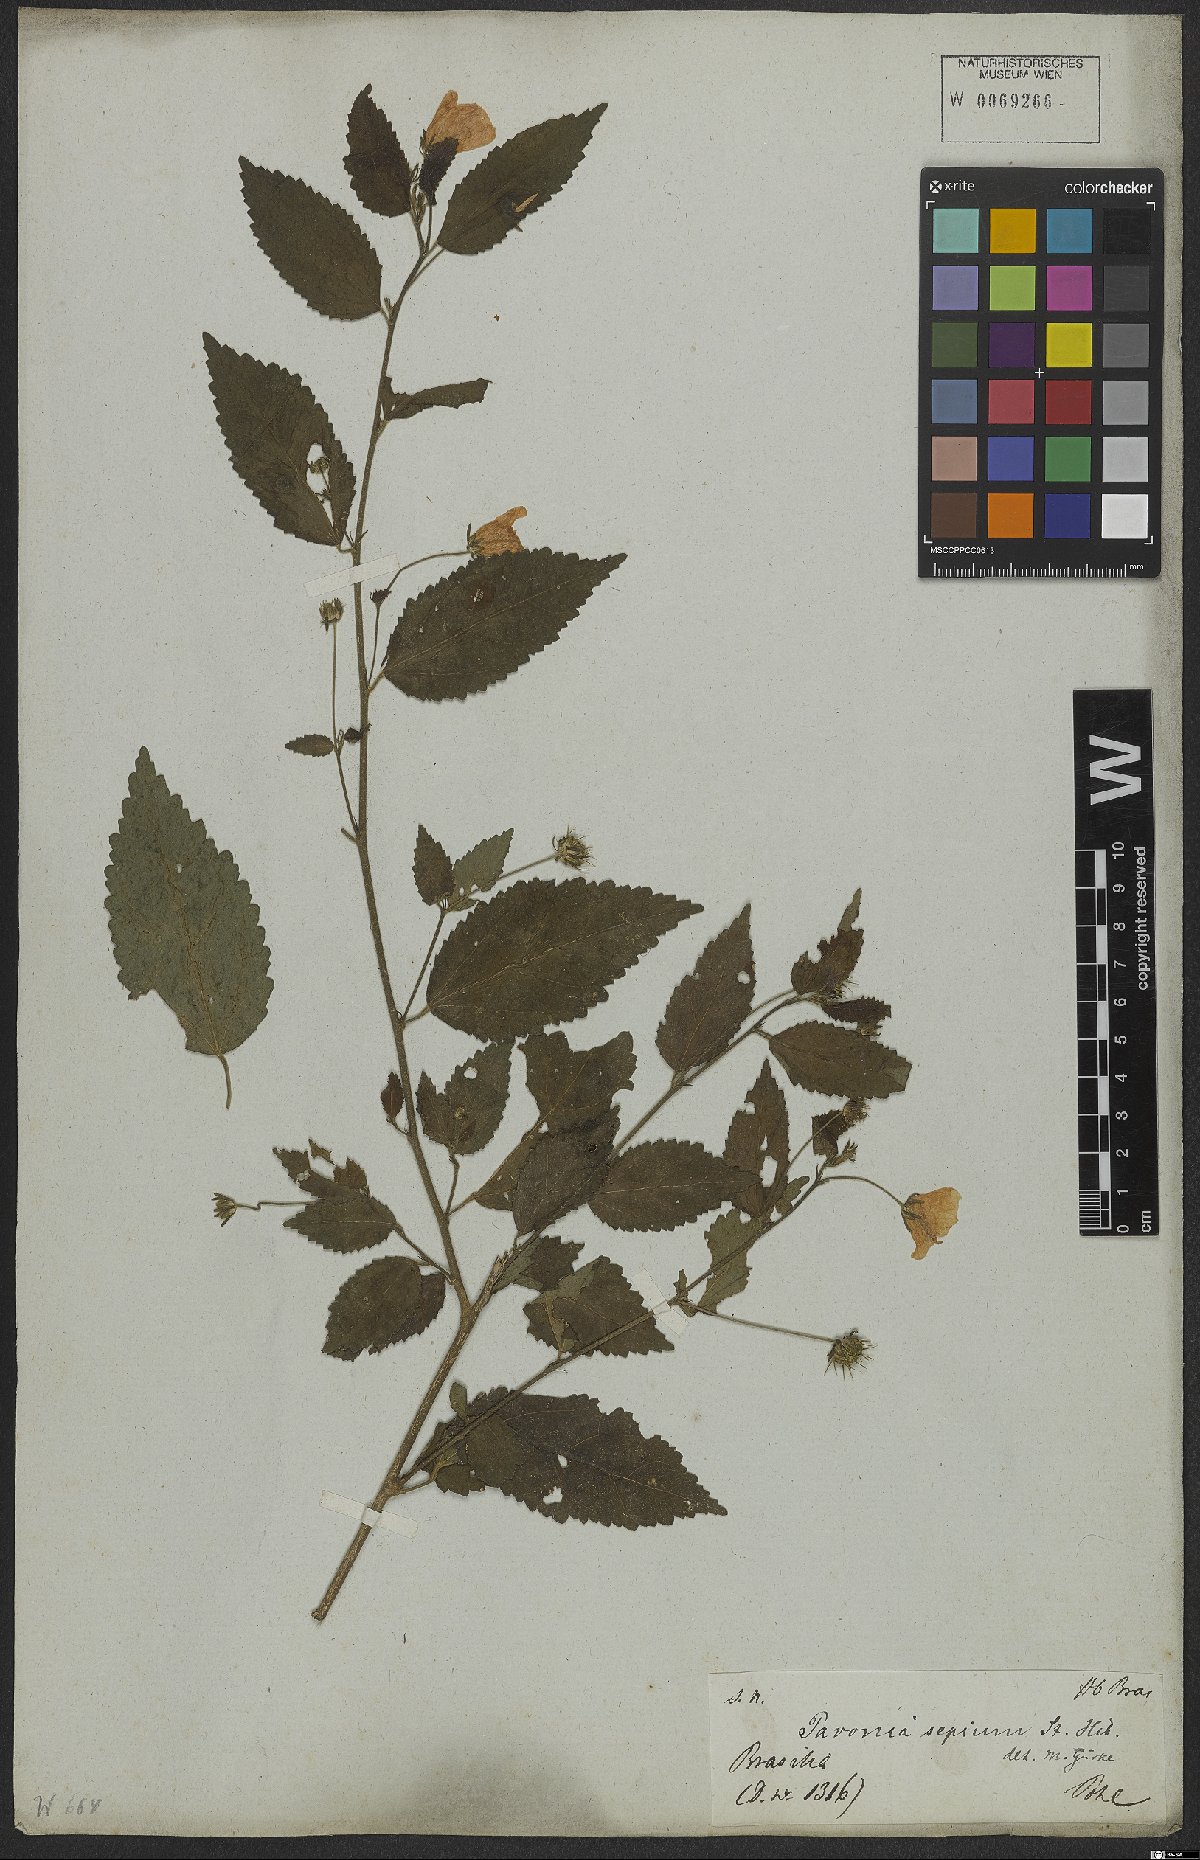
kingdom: Plantae
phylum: Tracheophyta
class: Magnoliopsida
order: Malvales
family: Malvaceae
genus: Pavonia
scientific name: Pavonia sepium
